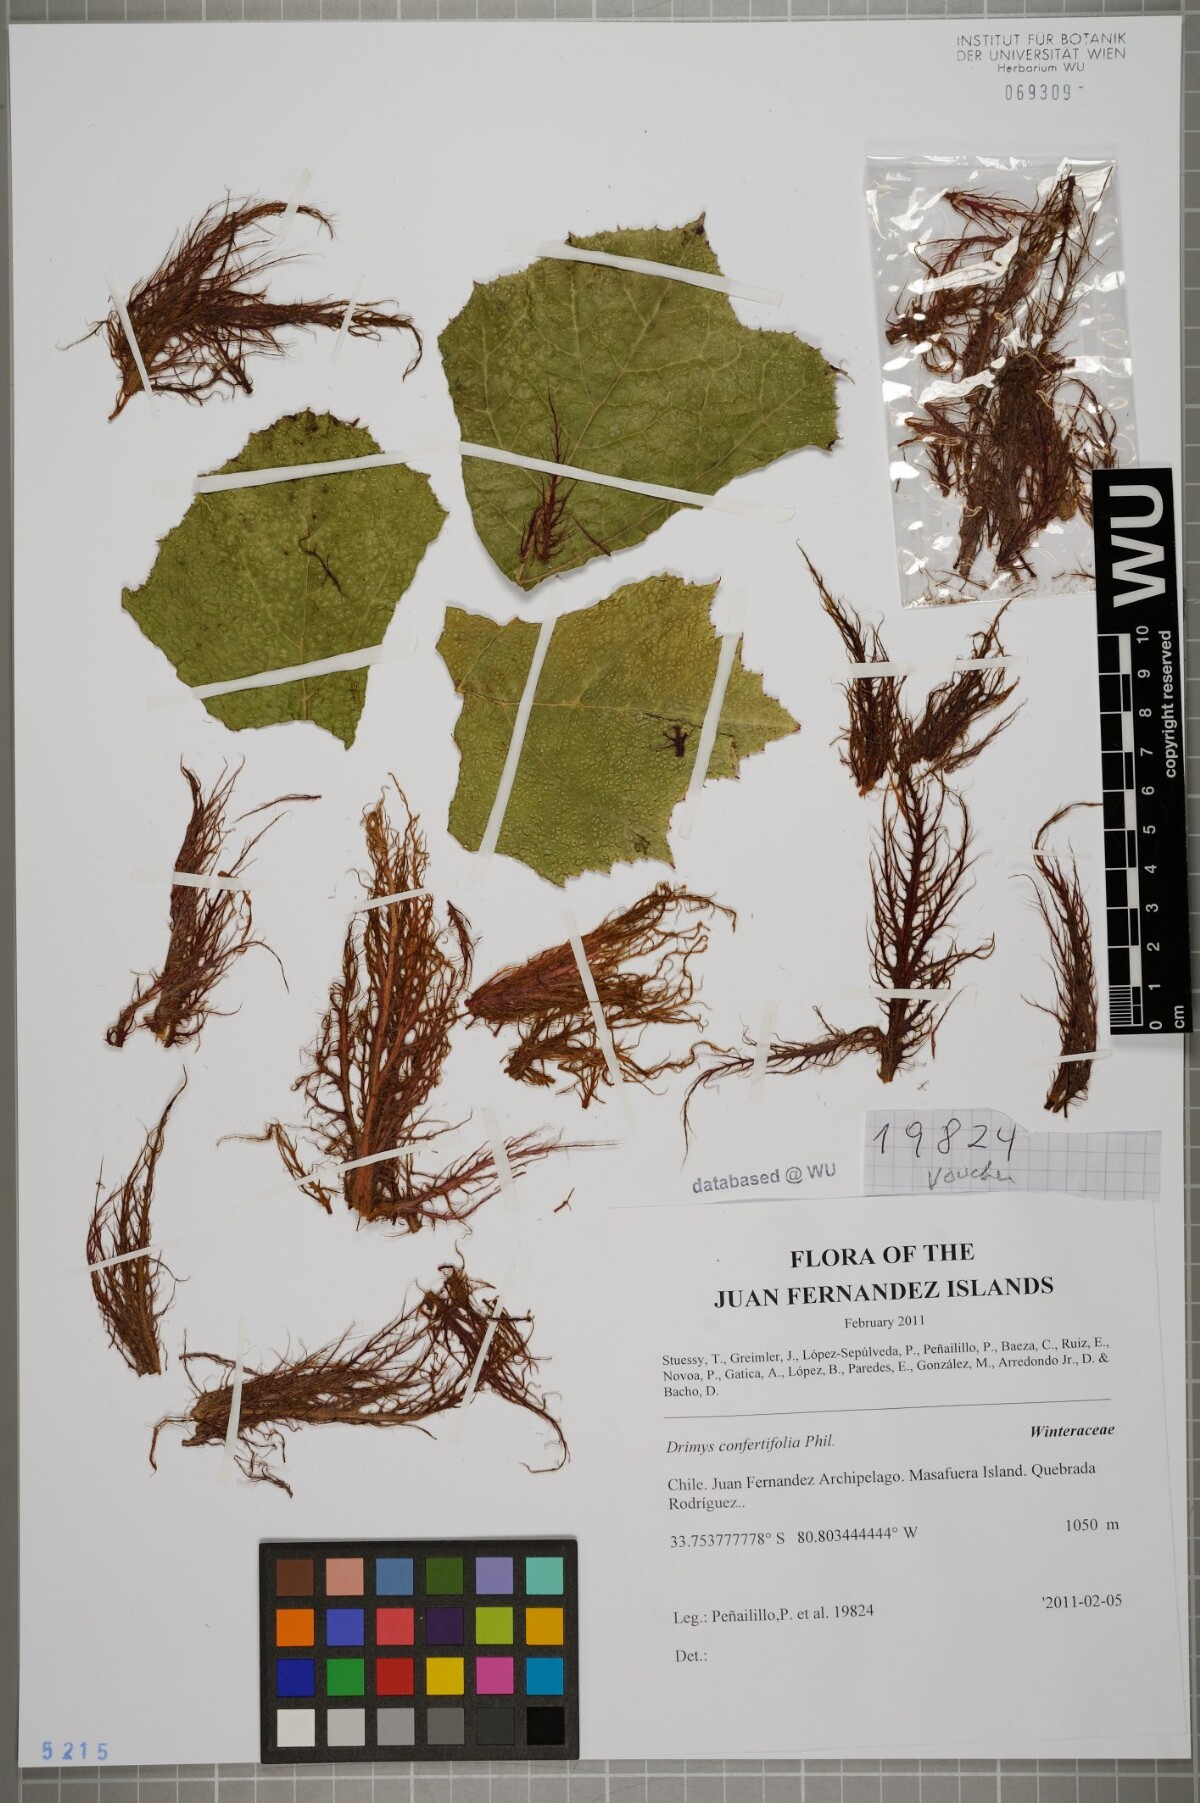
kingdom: Plantae
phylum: Tracheophyta
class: Magnoliopsida
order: Canellales
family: Winteraceae
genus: Drimys
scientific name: Drimys confertiflora
